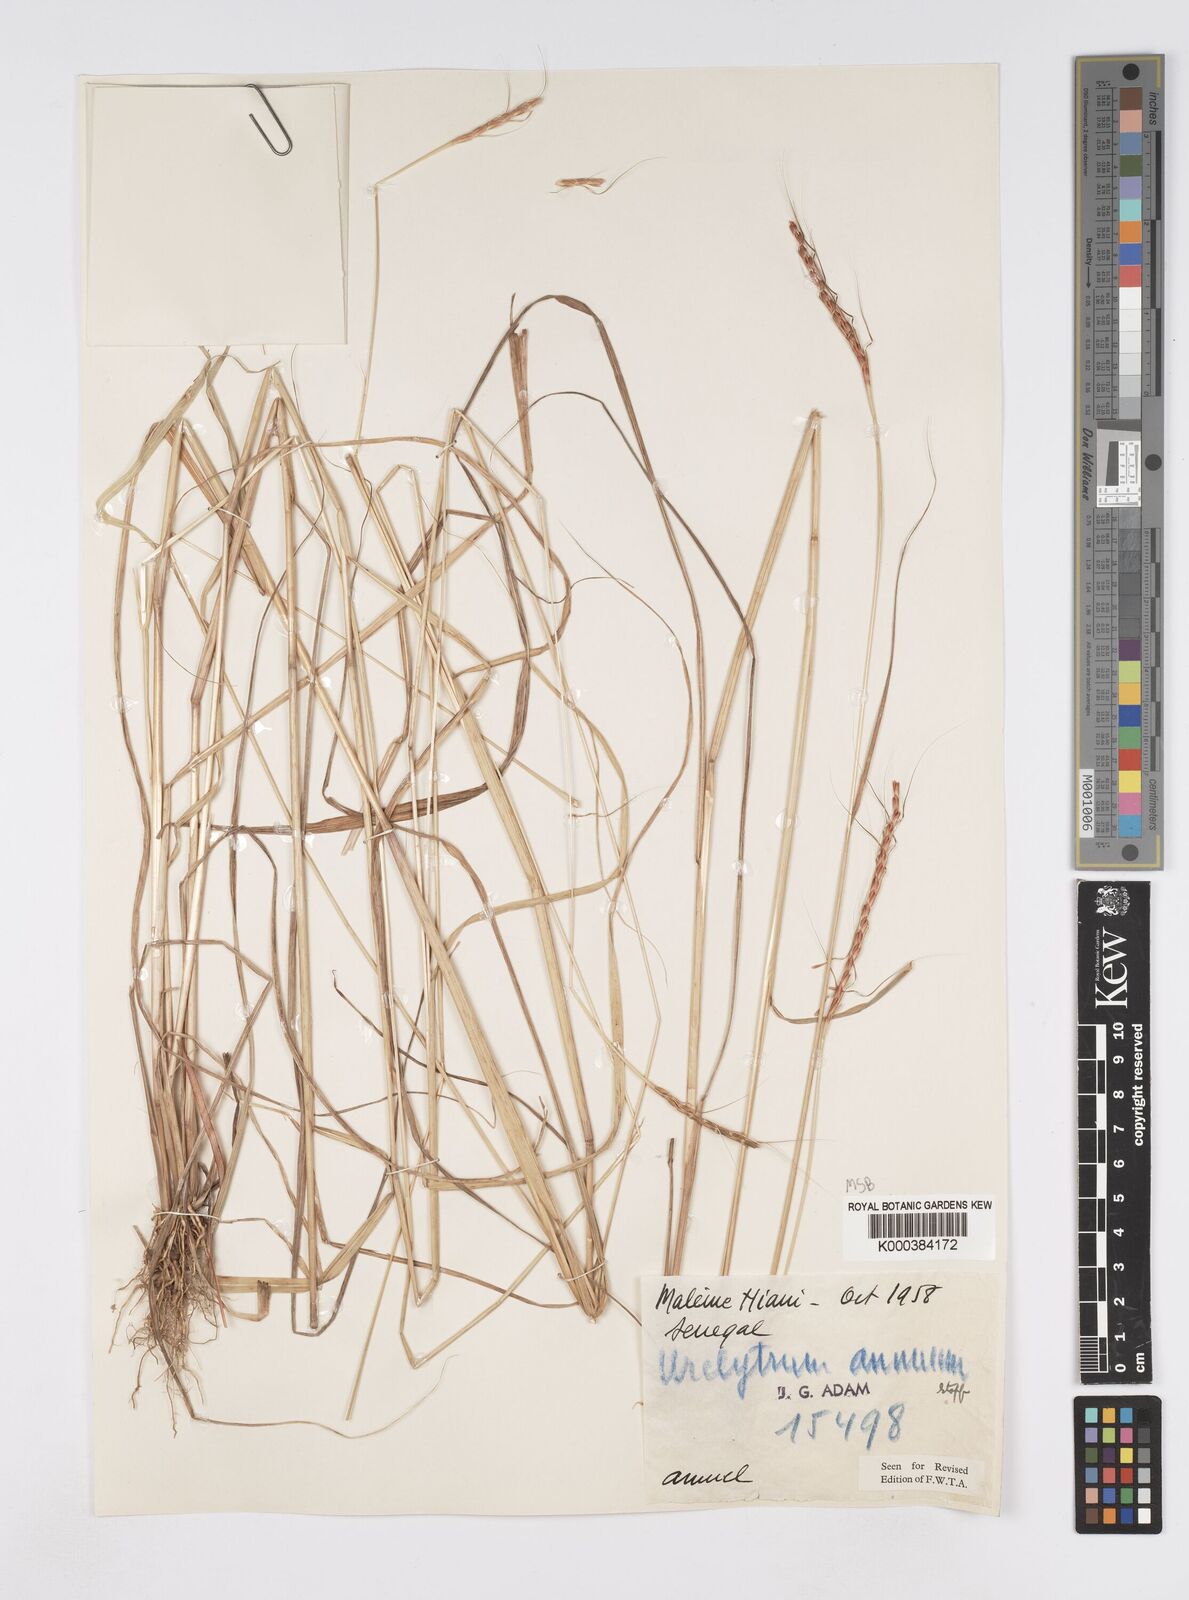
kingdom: Plantae
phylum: Tracheophyta
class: Liliopsida
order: Poales
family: Poaceae
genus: Urelytrum
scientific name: Urelytrum annuum
